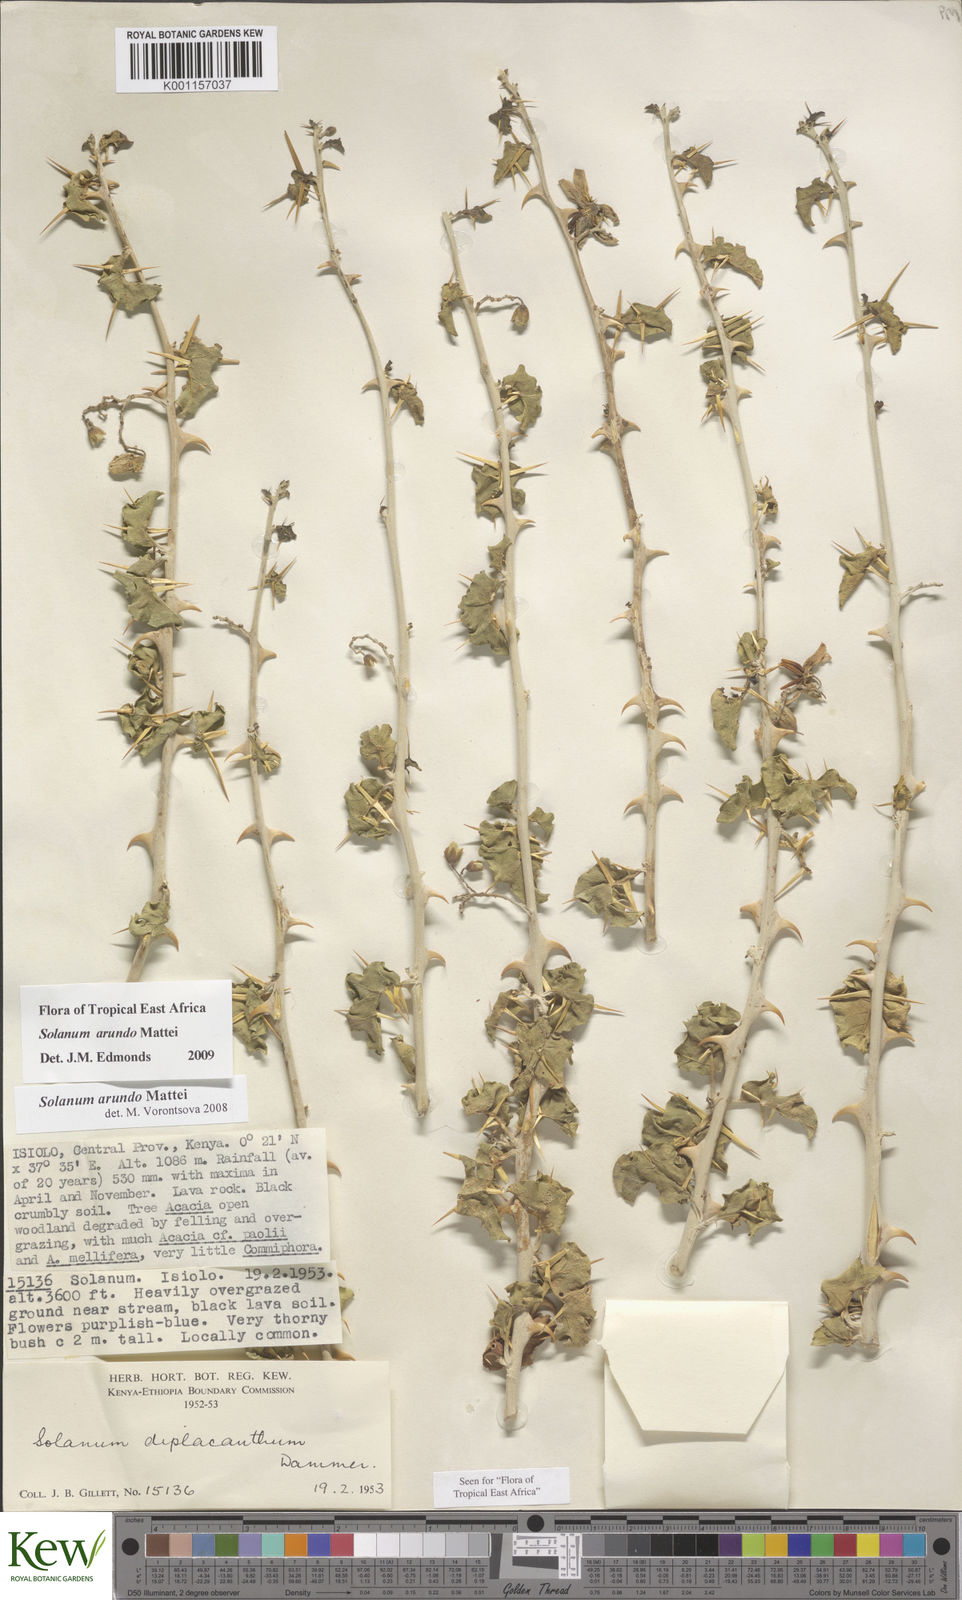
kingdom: Plantae
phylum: Tracheophyta
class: Magnoliopsida
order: Solanales
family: Solanaceae
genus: Solanum
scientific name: Solanum arundo
